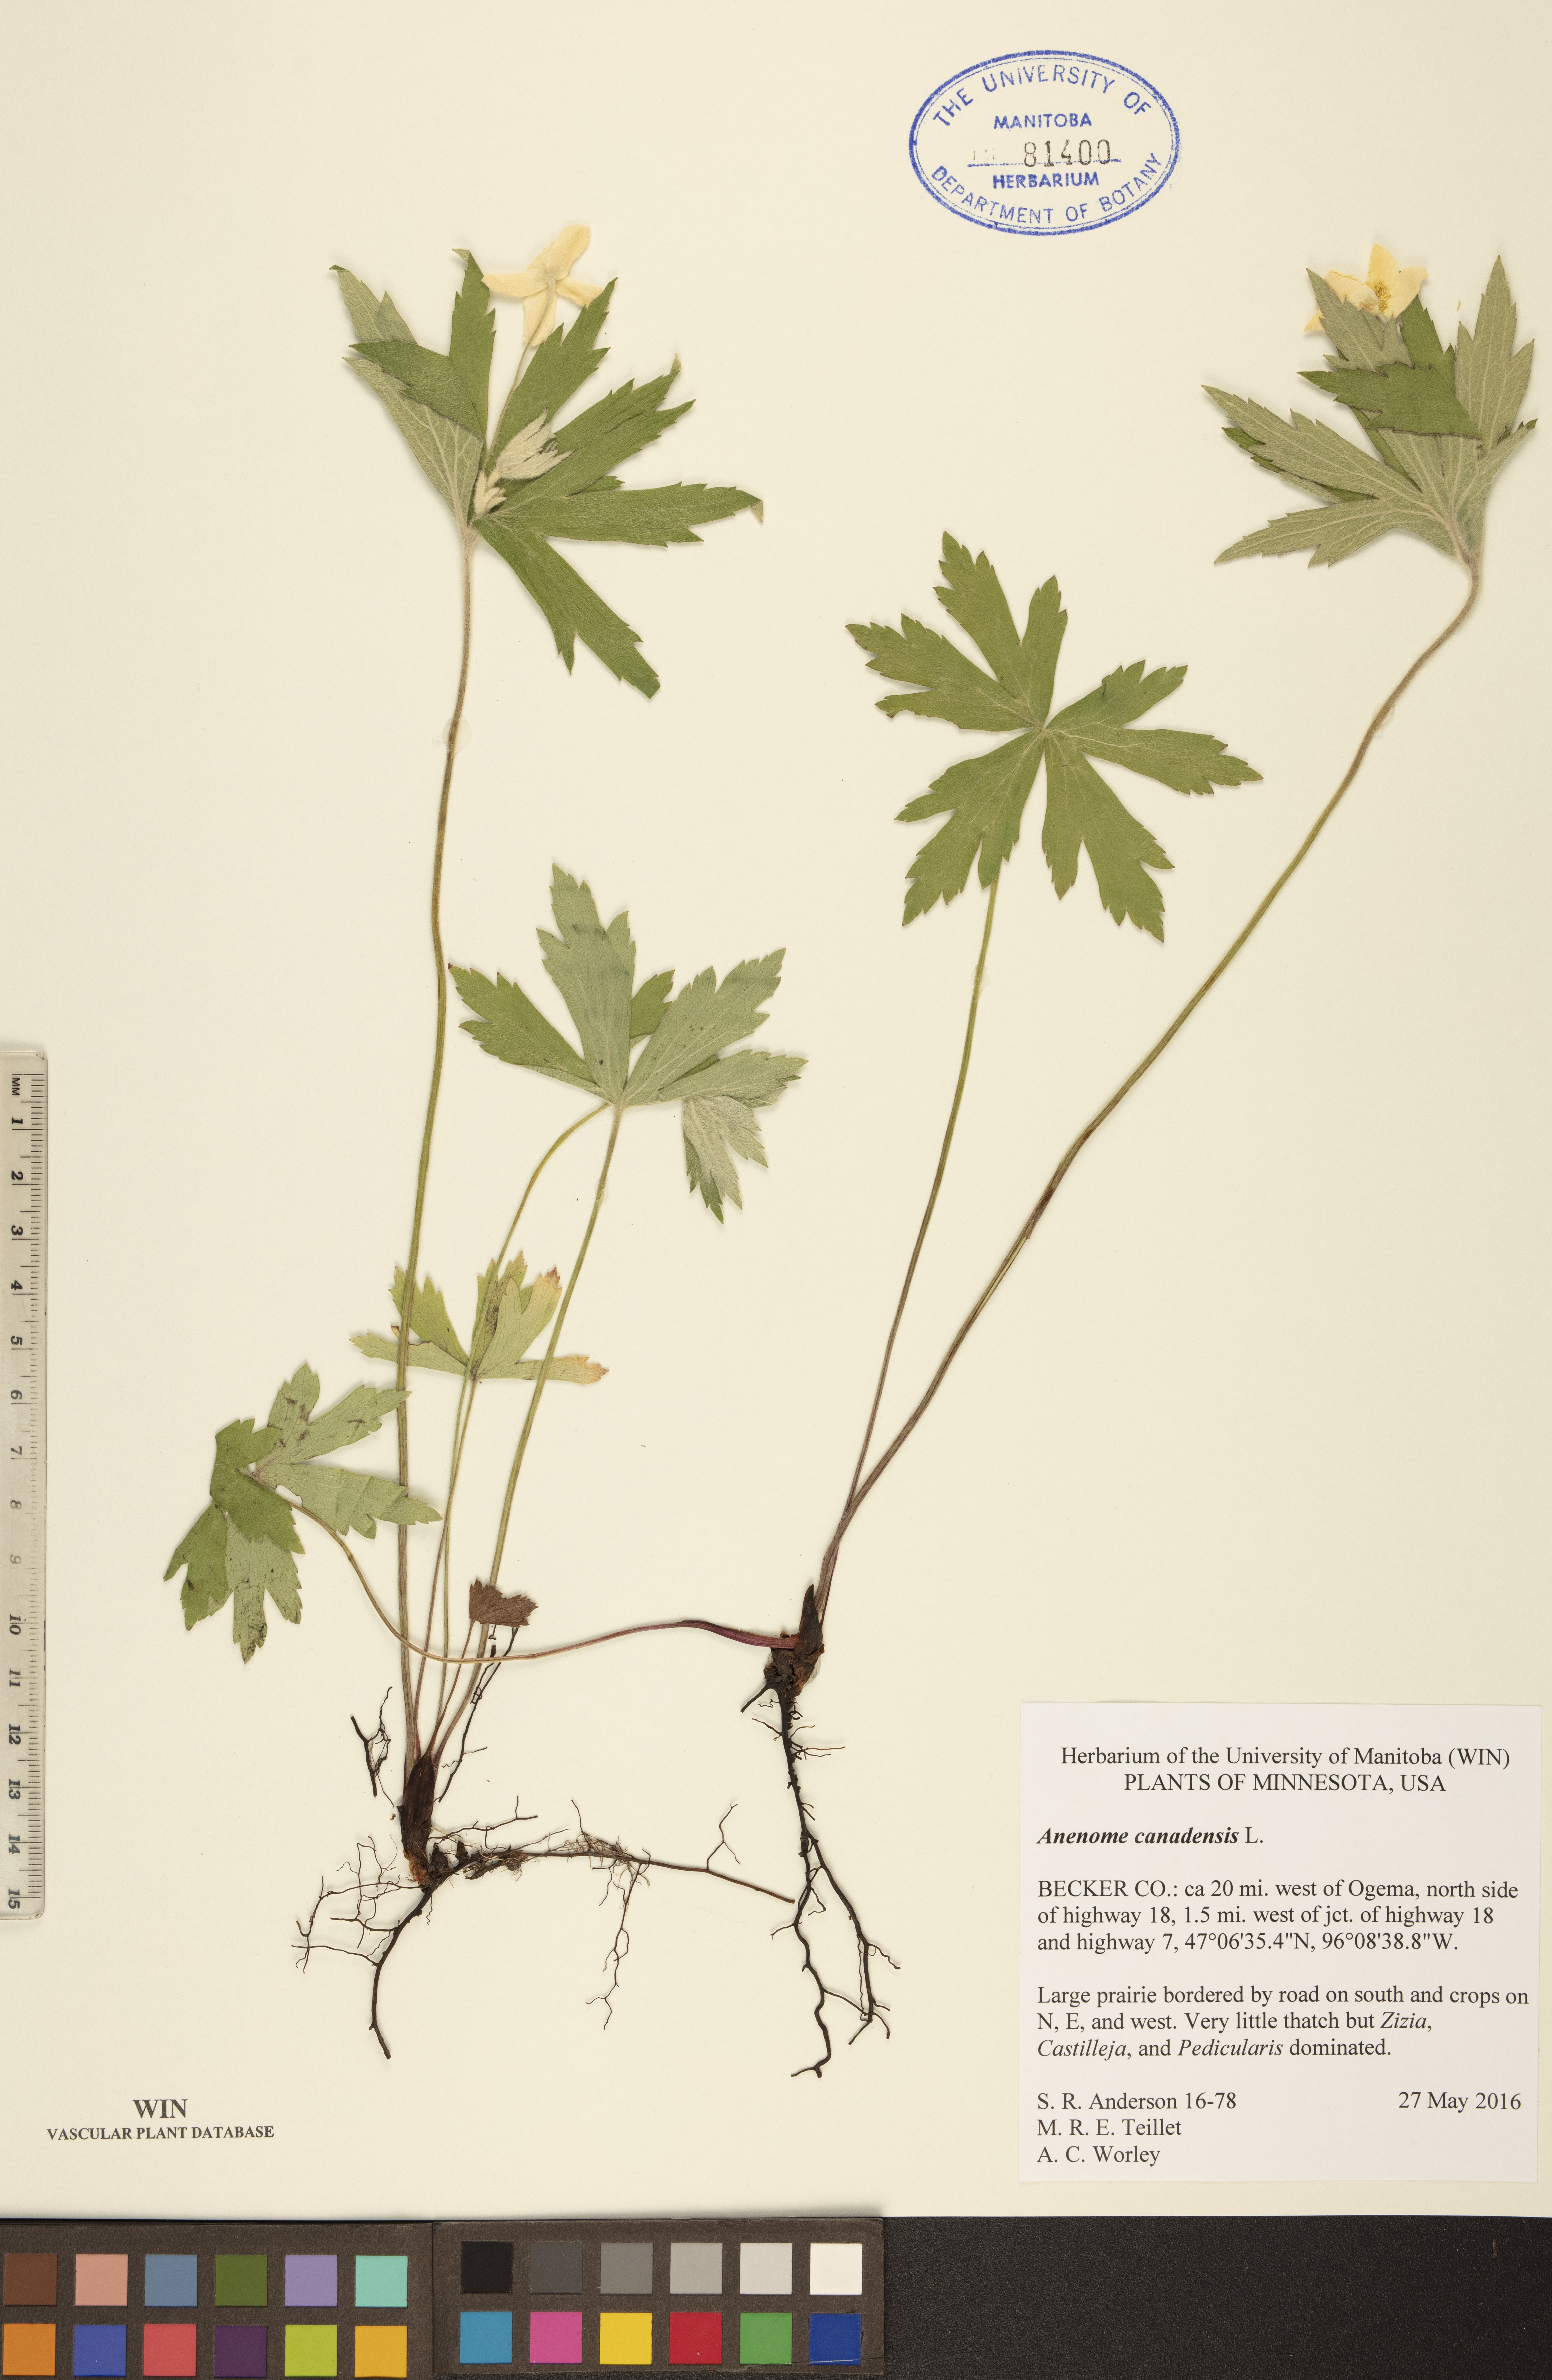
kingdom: Plantae
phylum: Tracheophyta
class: Magnoliopsida
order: Ranunculales
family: Ranunculaceae
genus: Anemonastrum
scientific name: Anemonastrum canadense
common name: Canada anemone
